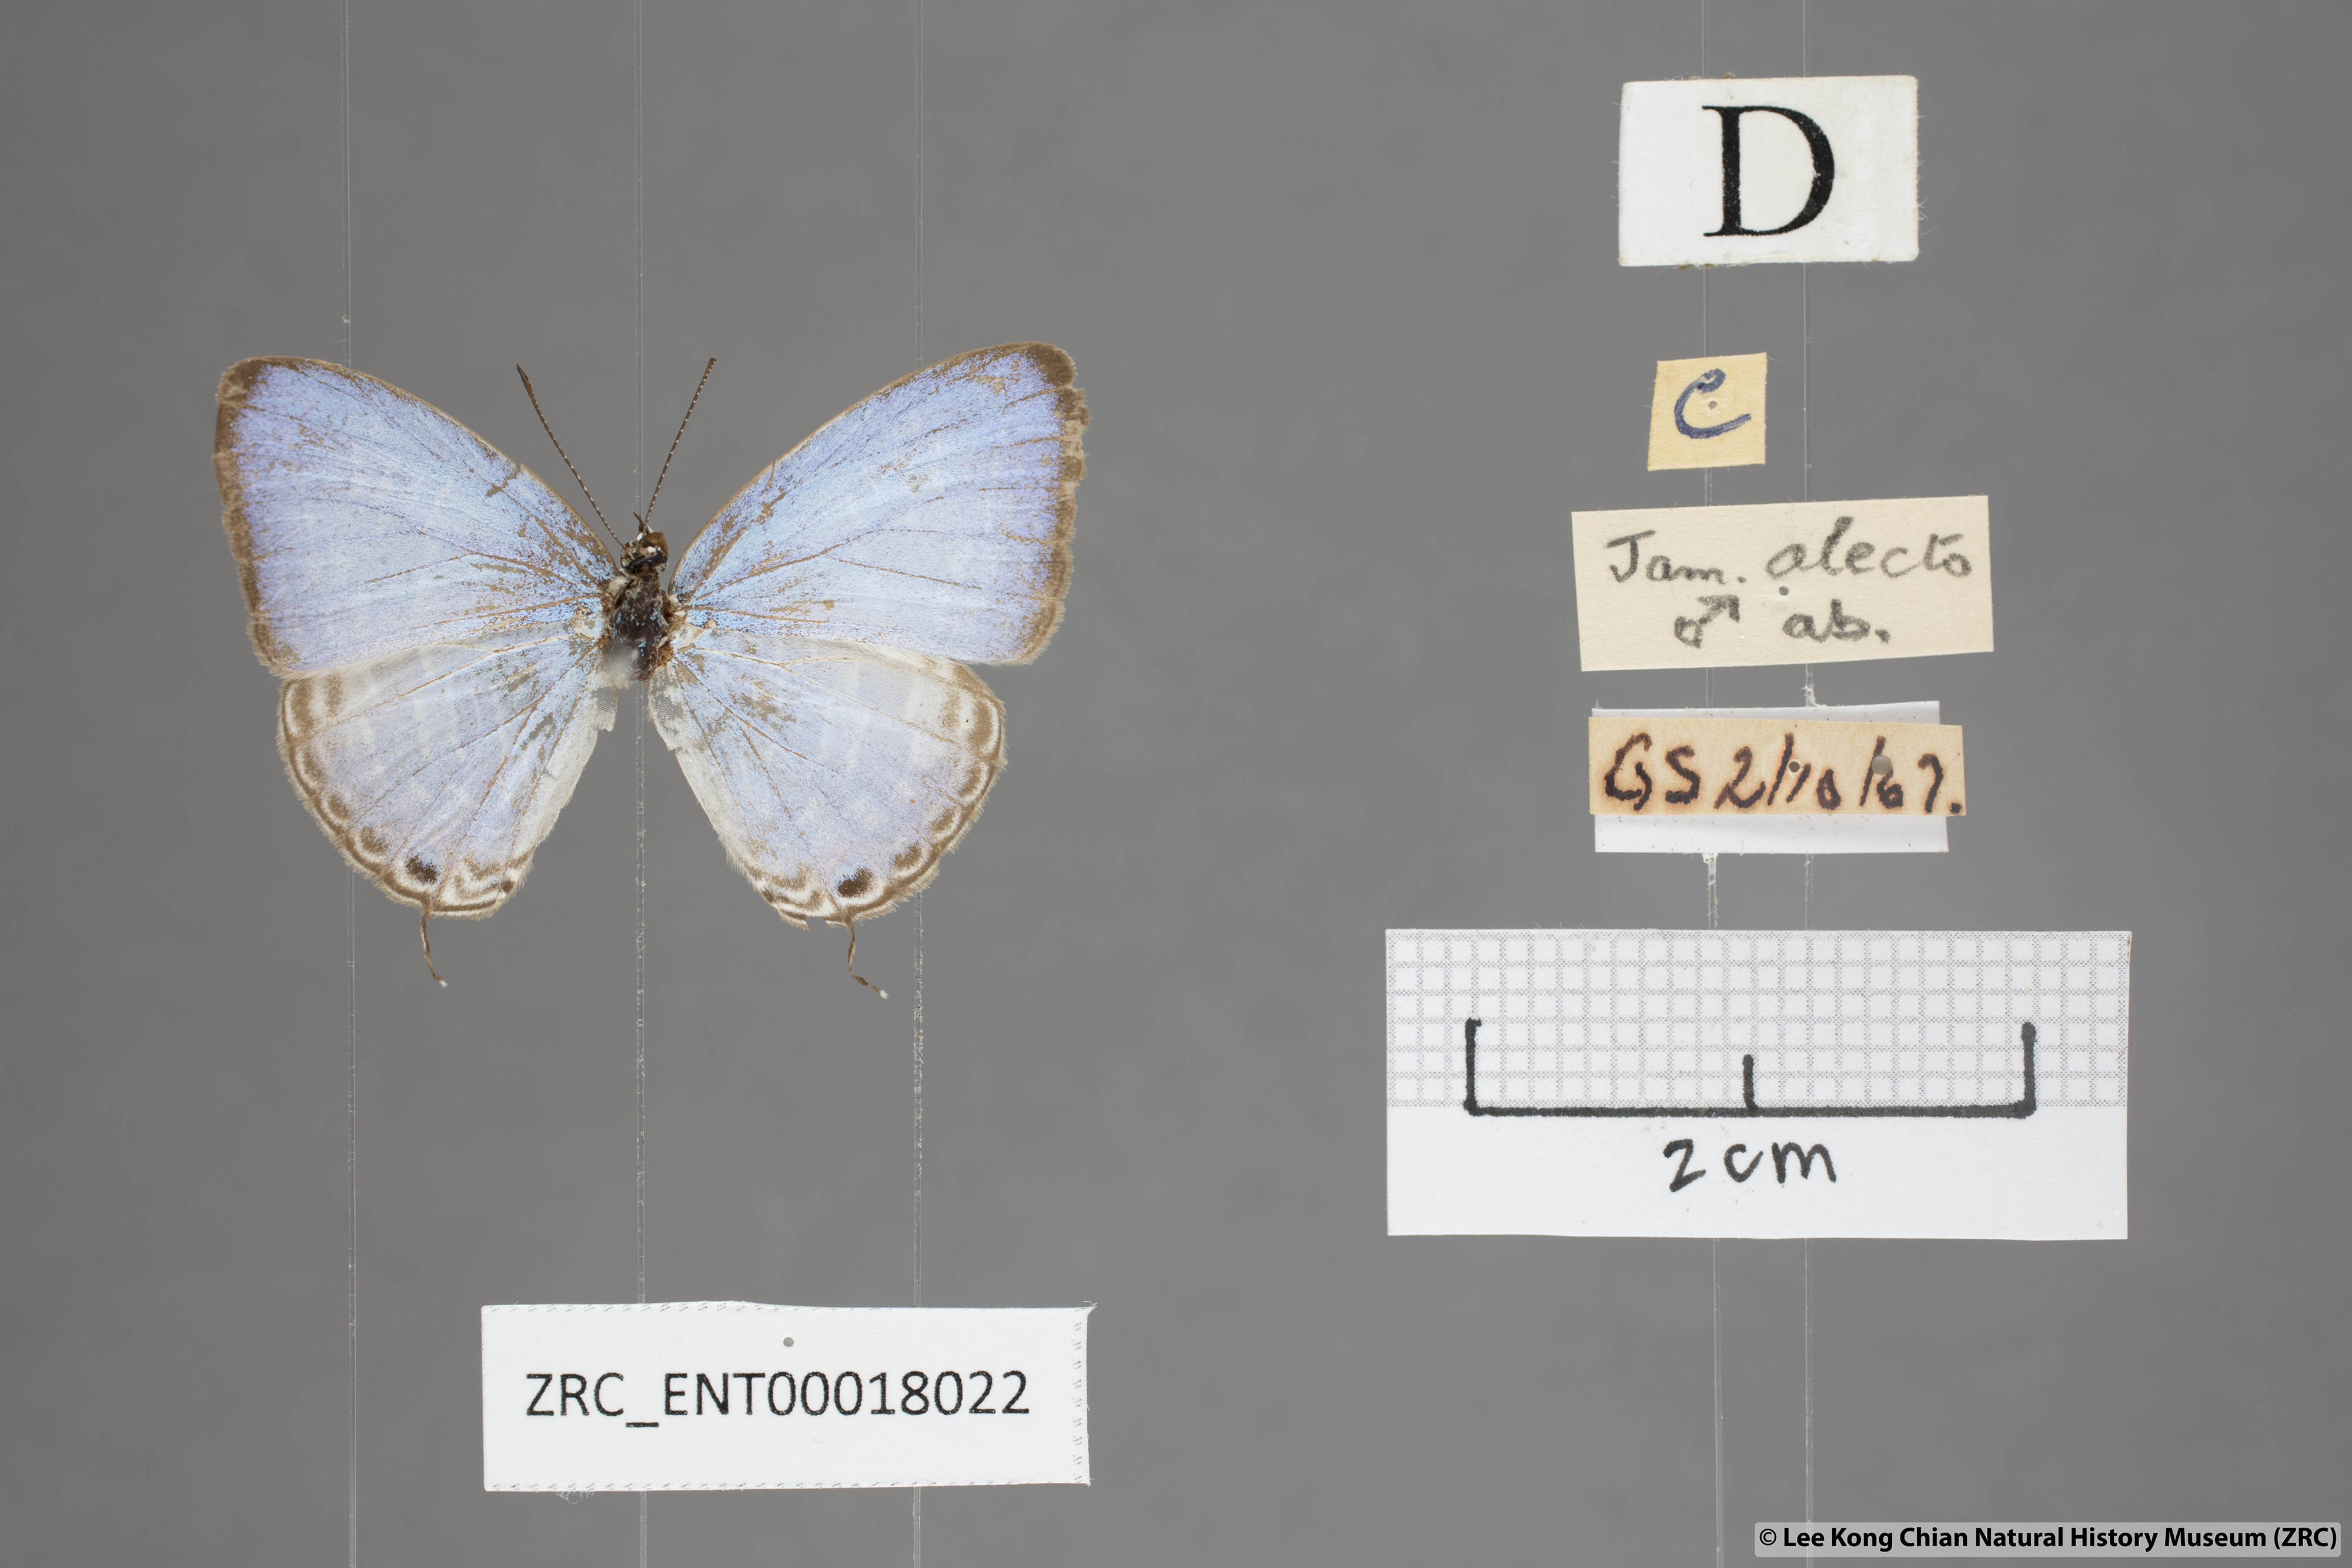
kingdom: Animalia
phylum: Arthropoda
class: Insecta
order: Lepidoptera
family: Lycaenidae
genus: Jamides
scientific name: Jamides alecto
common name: Metallic cerulean
